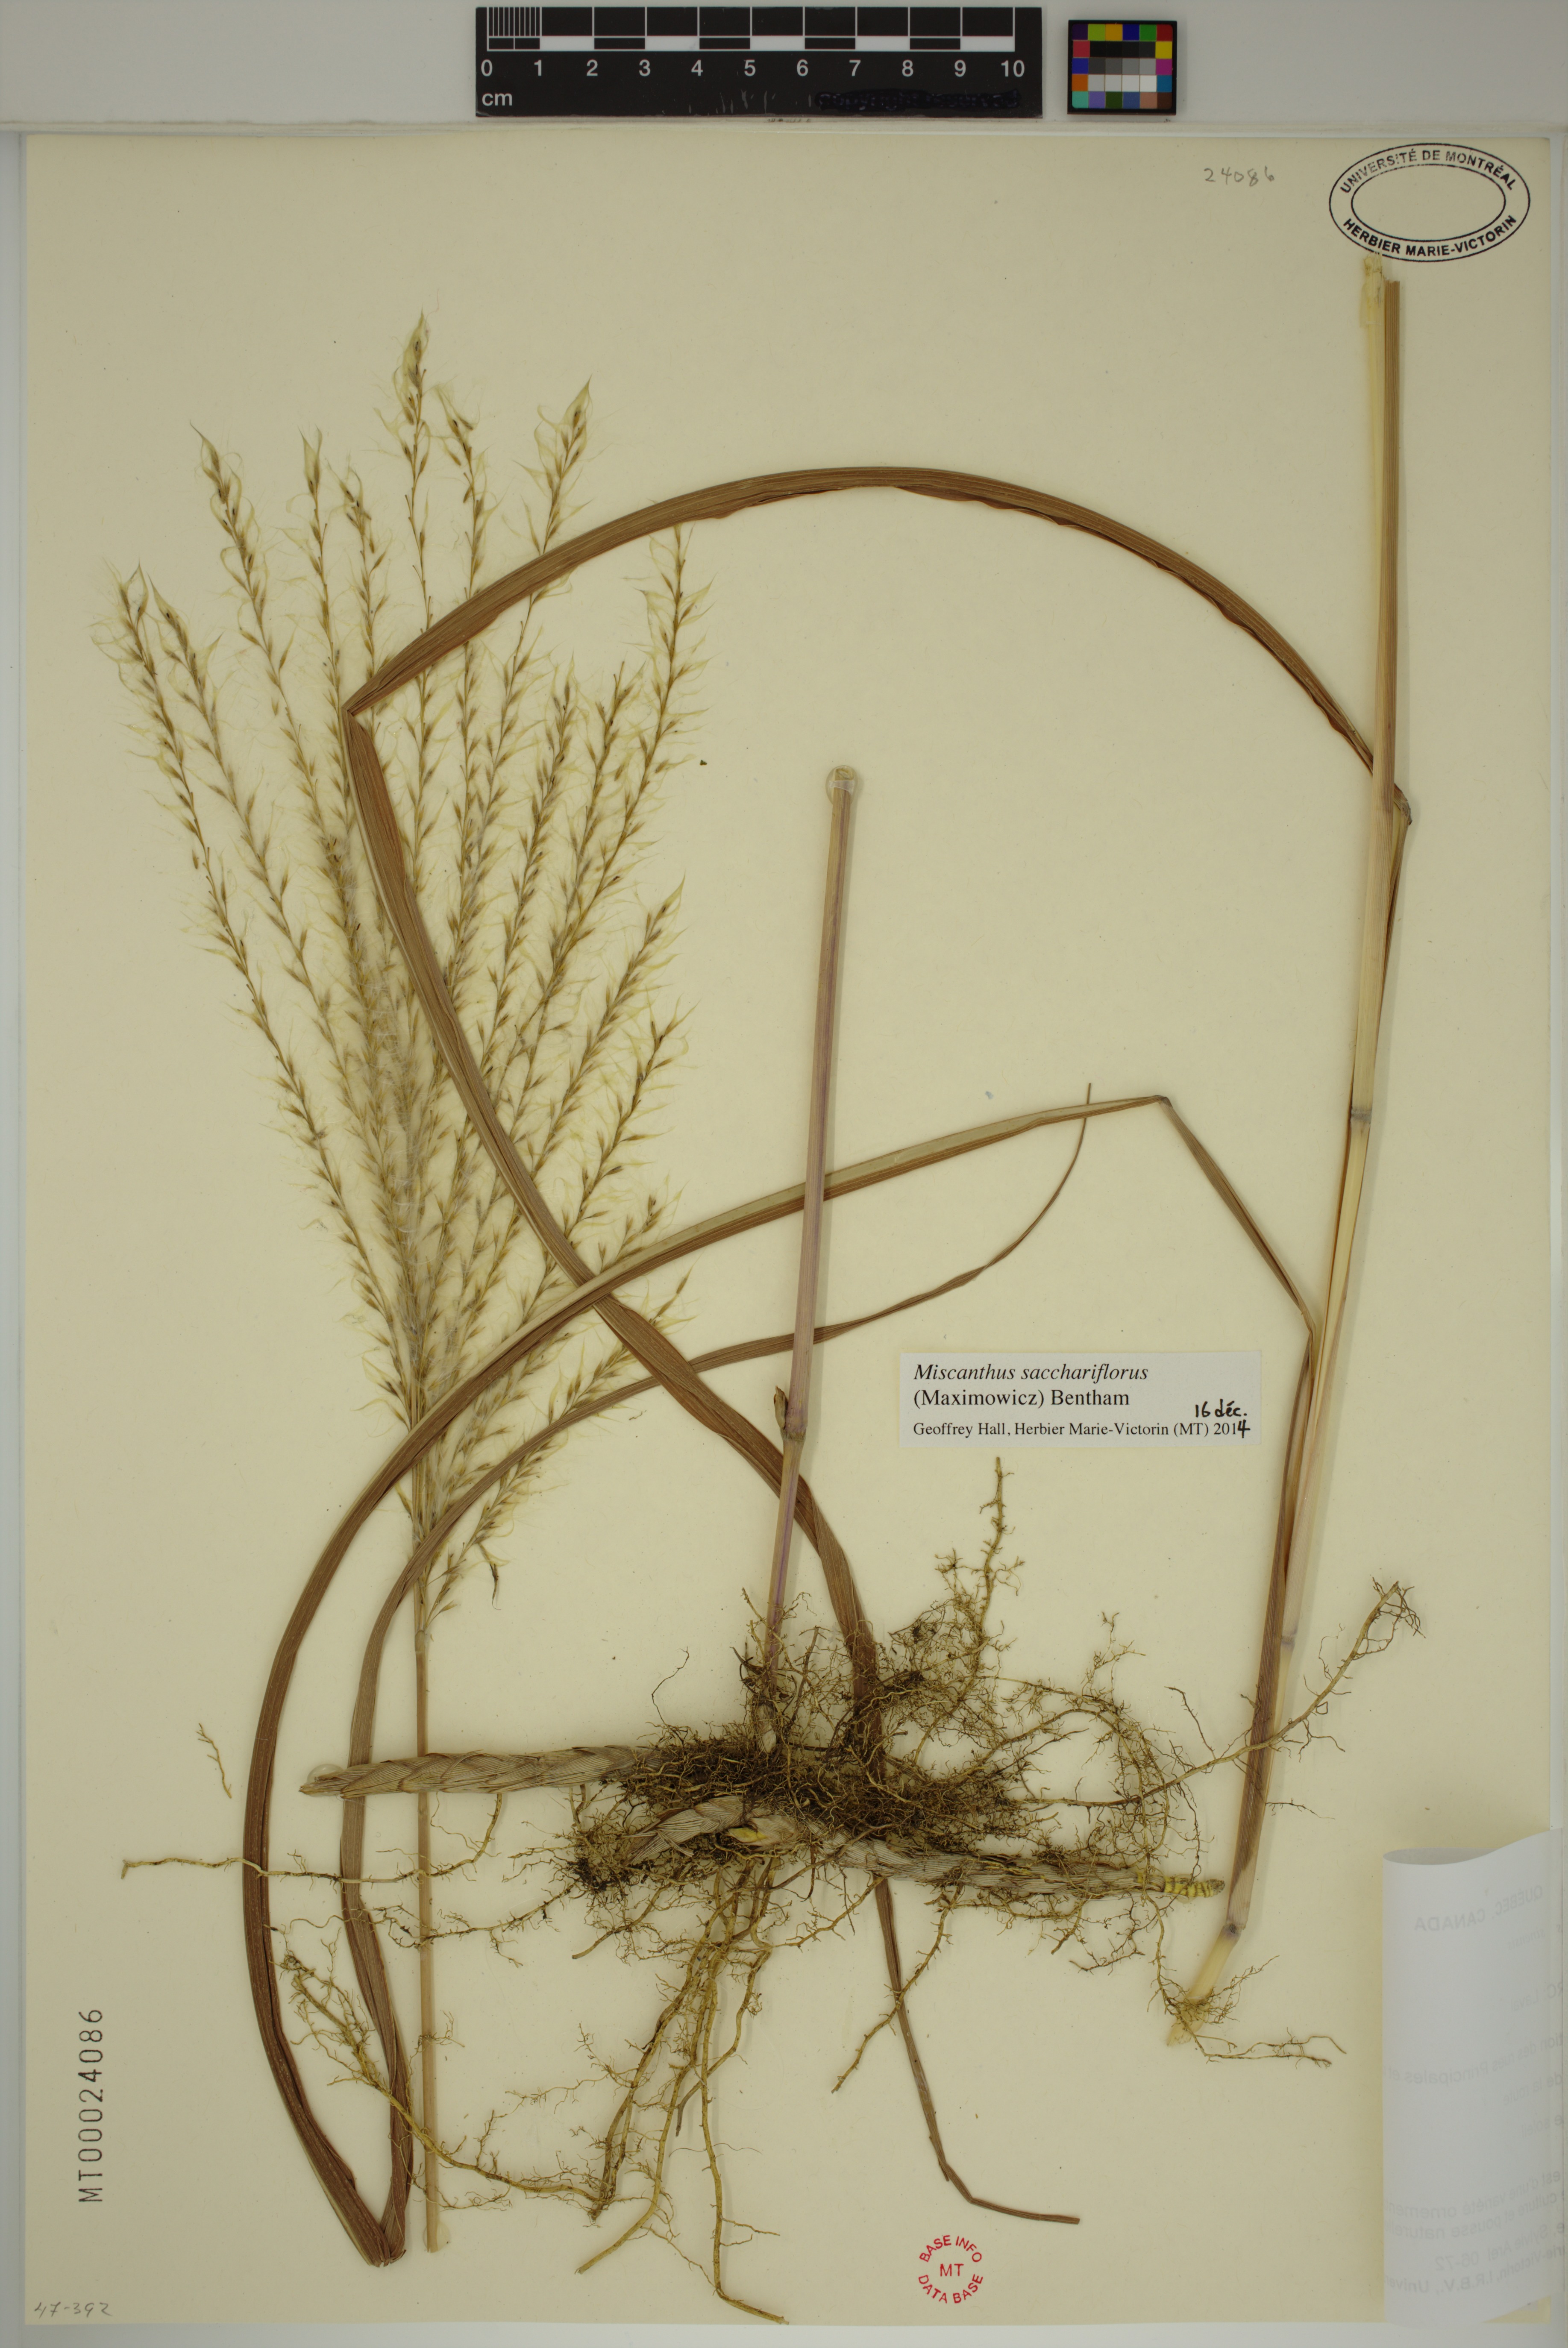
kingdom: Plantae
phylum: Tracheophyta
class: Liliopsida
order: Poales
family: Poaceae
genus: Miscanthus
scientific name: Miscanthus sacchariflorus
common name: Amur silver grass
